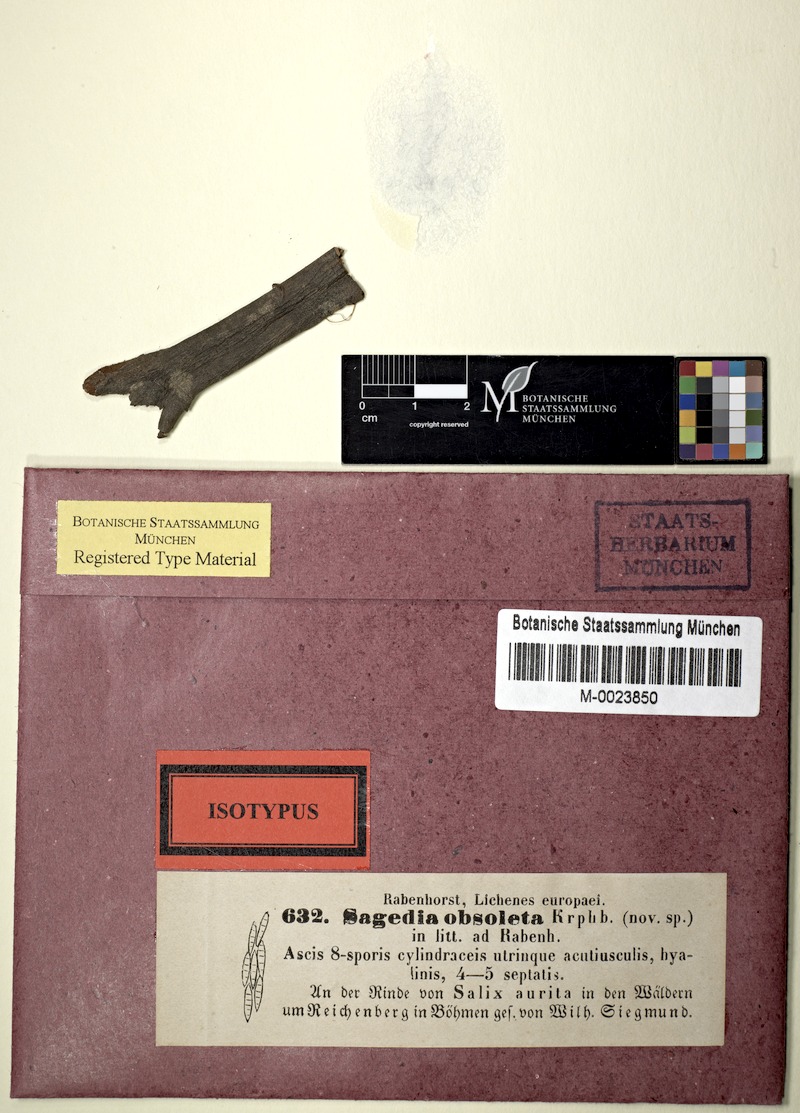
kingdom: Fungi
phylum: Ascomycota
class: Lecanoromycetes
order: Pertusariales
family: Pertusariaceae
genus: Porina
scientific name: Porina
